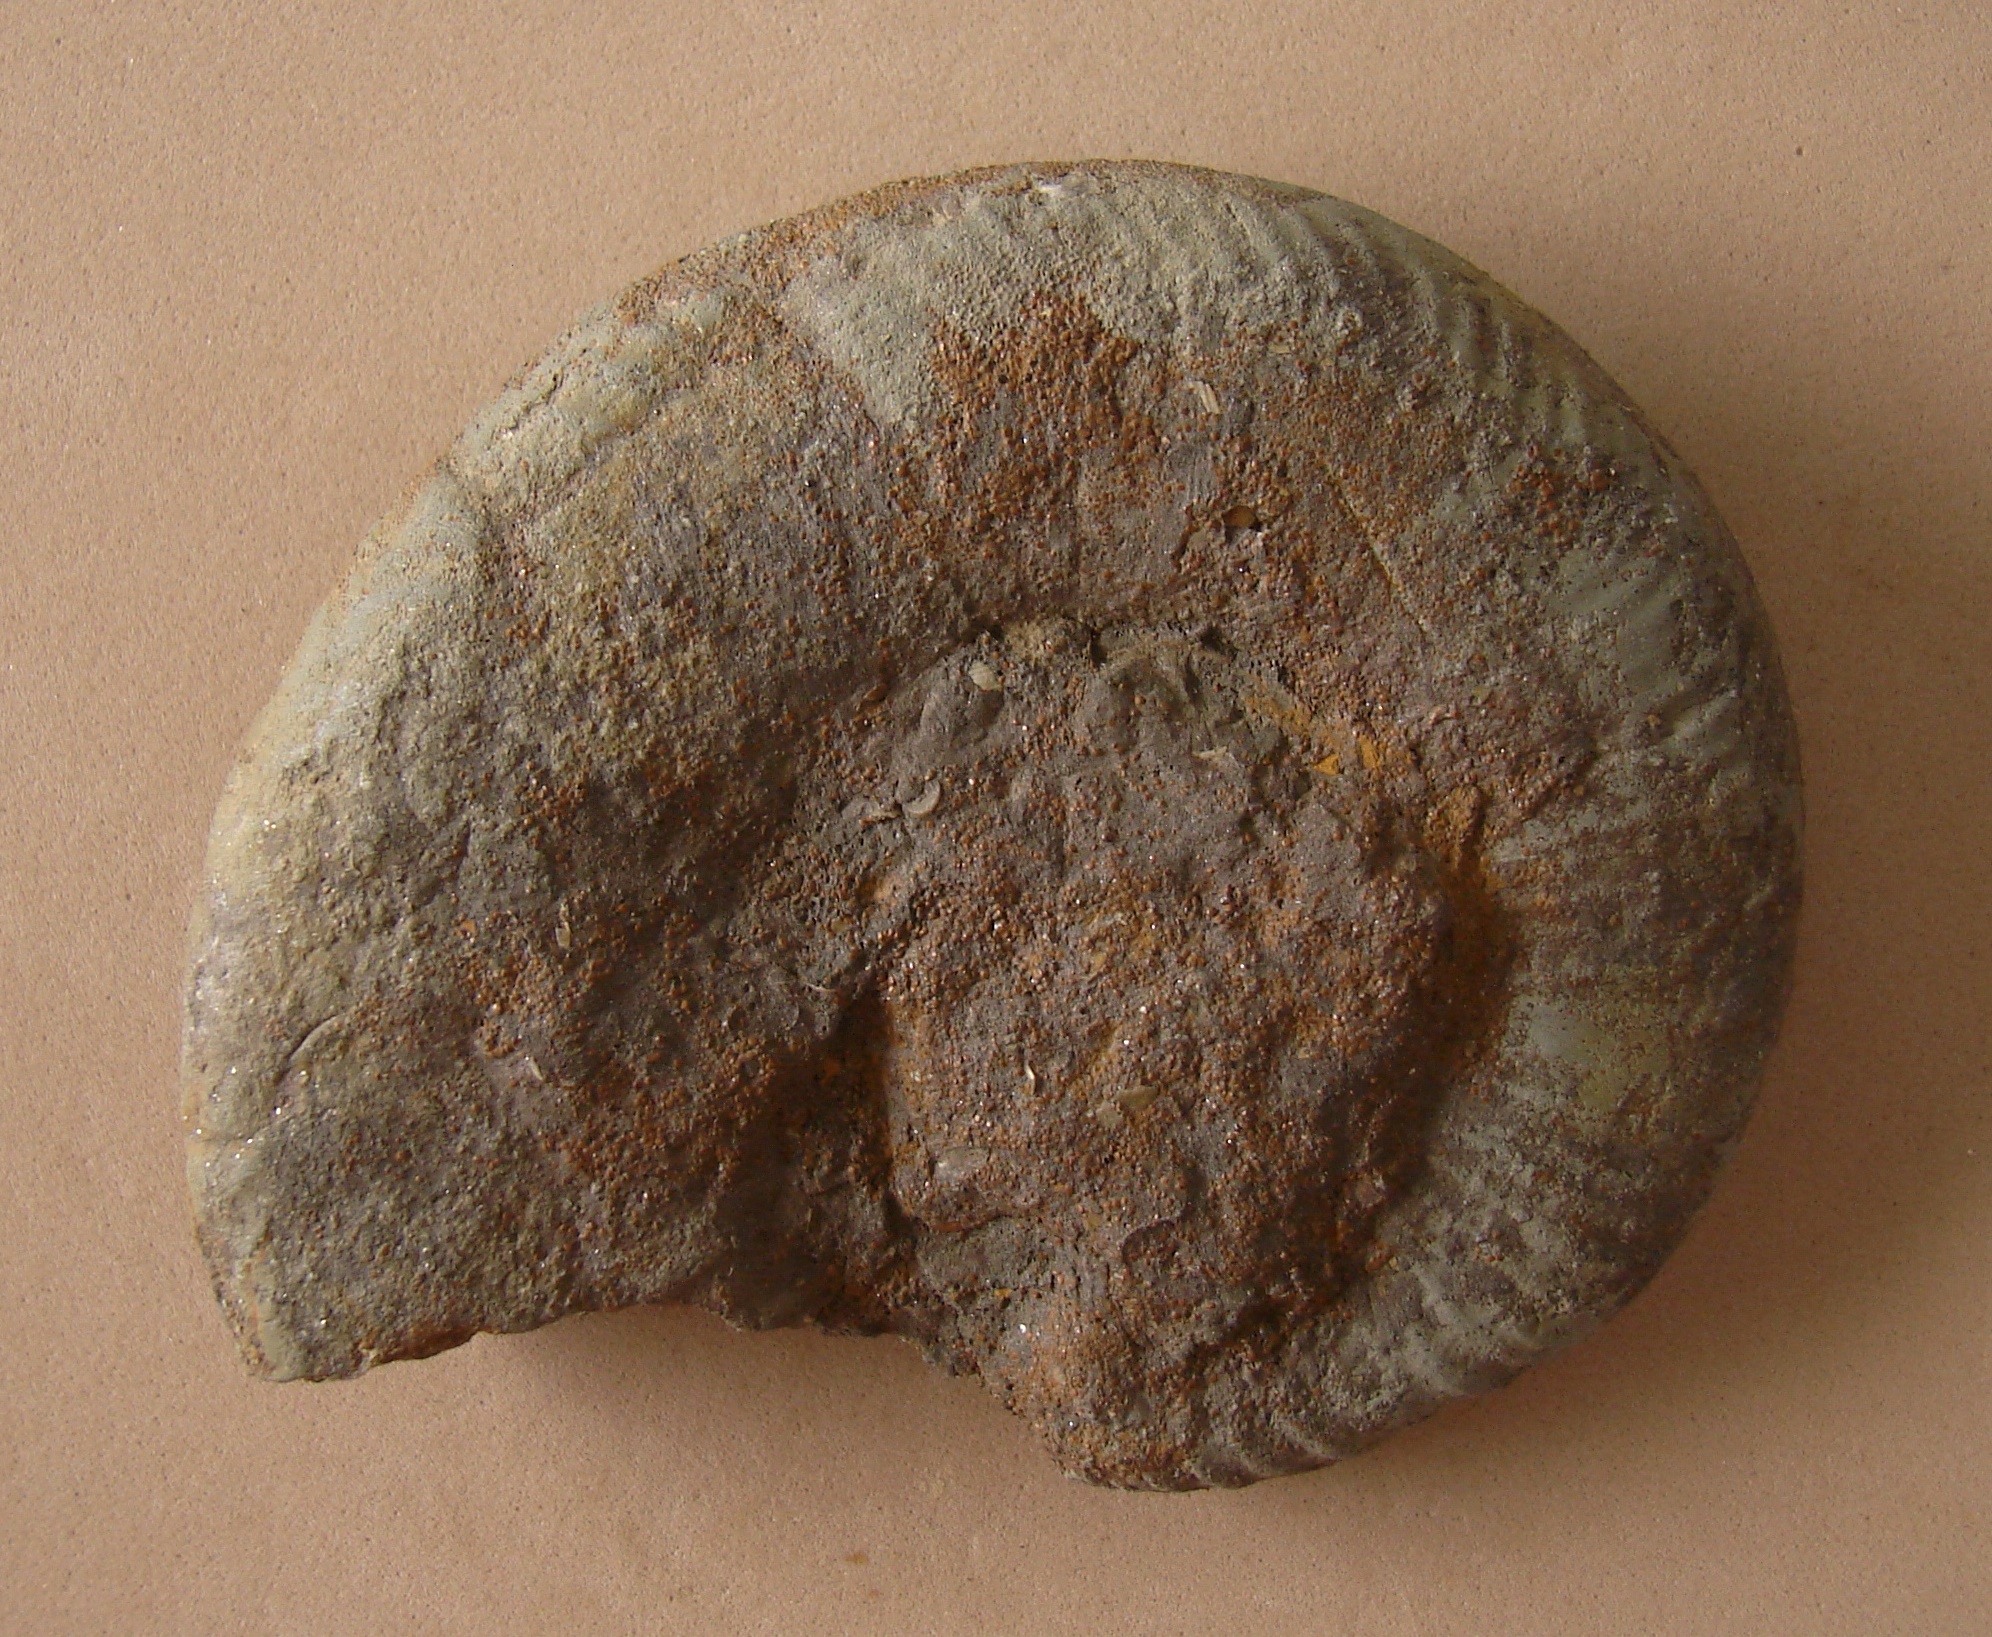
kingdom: Animalia
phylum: Mollusca
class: Cephalopoda
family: Hildoceratidae
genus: Dumortieria
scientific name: Dumortieria
